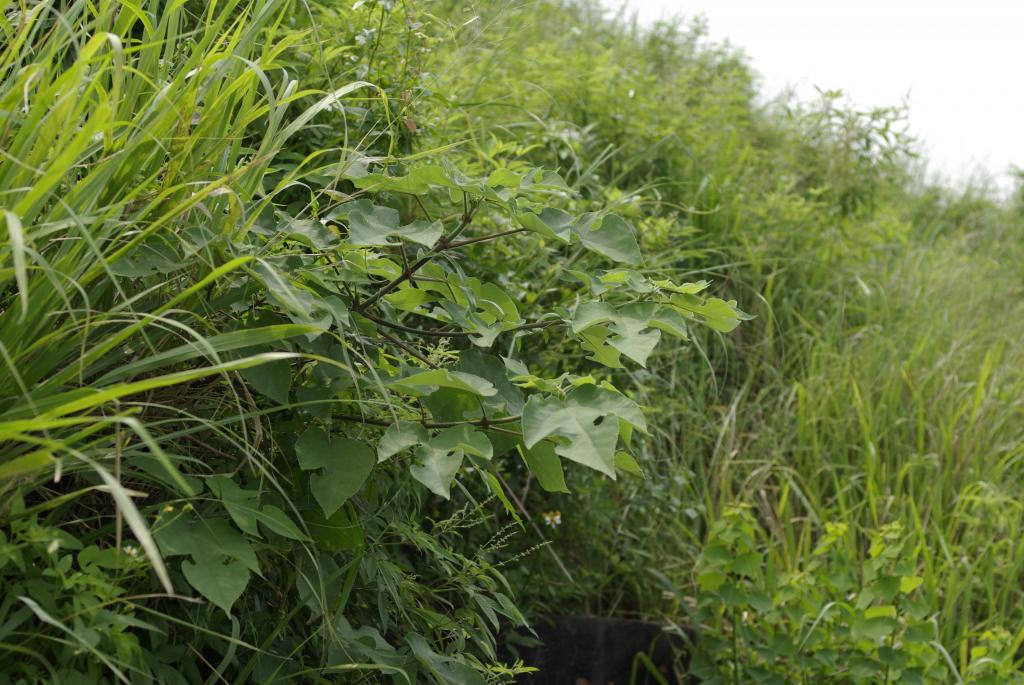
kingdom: Plantae
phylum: Tracheophyta
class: Magnoliopsida
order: Rosales
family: Moraceae
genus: Broussonetia
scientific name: Broussonetia papyrifera
